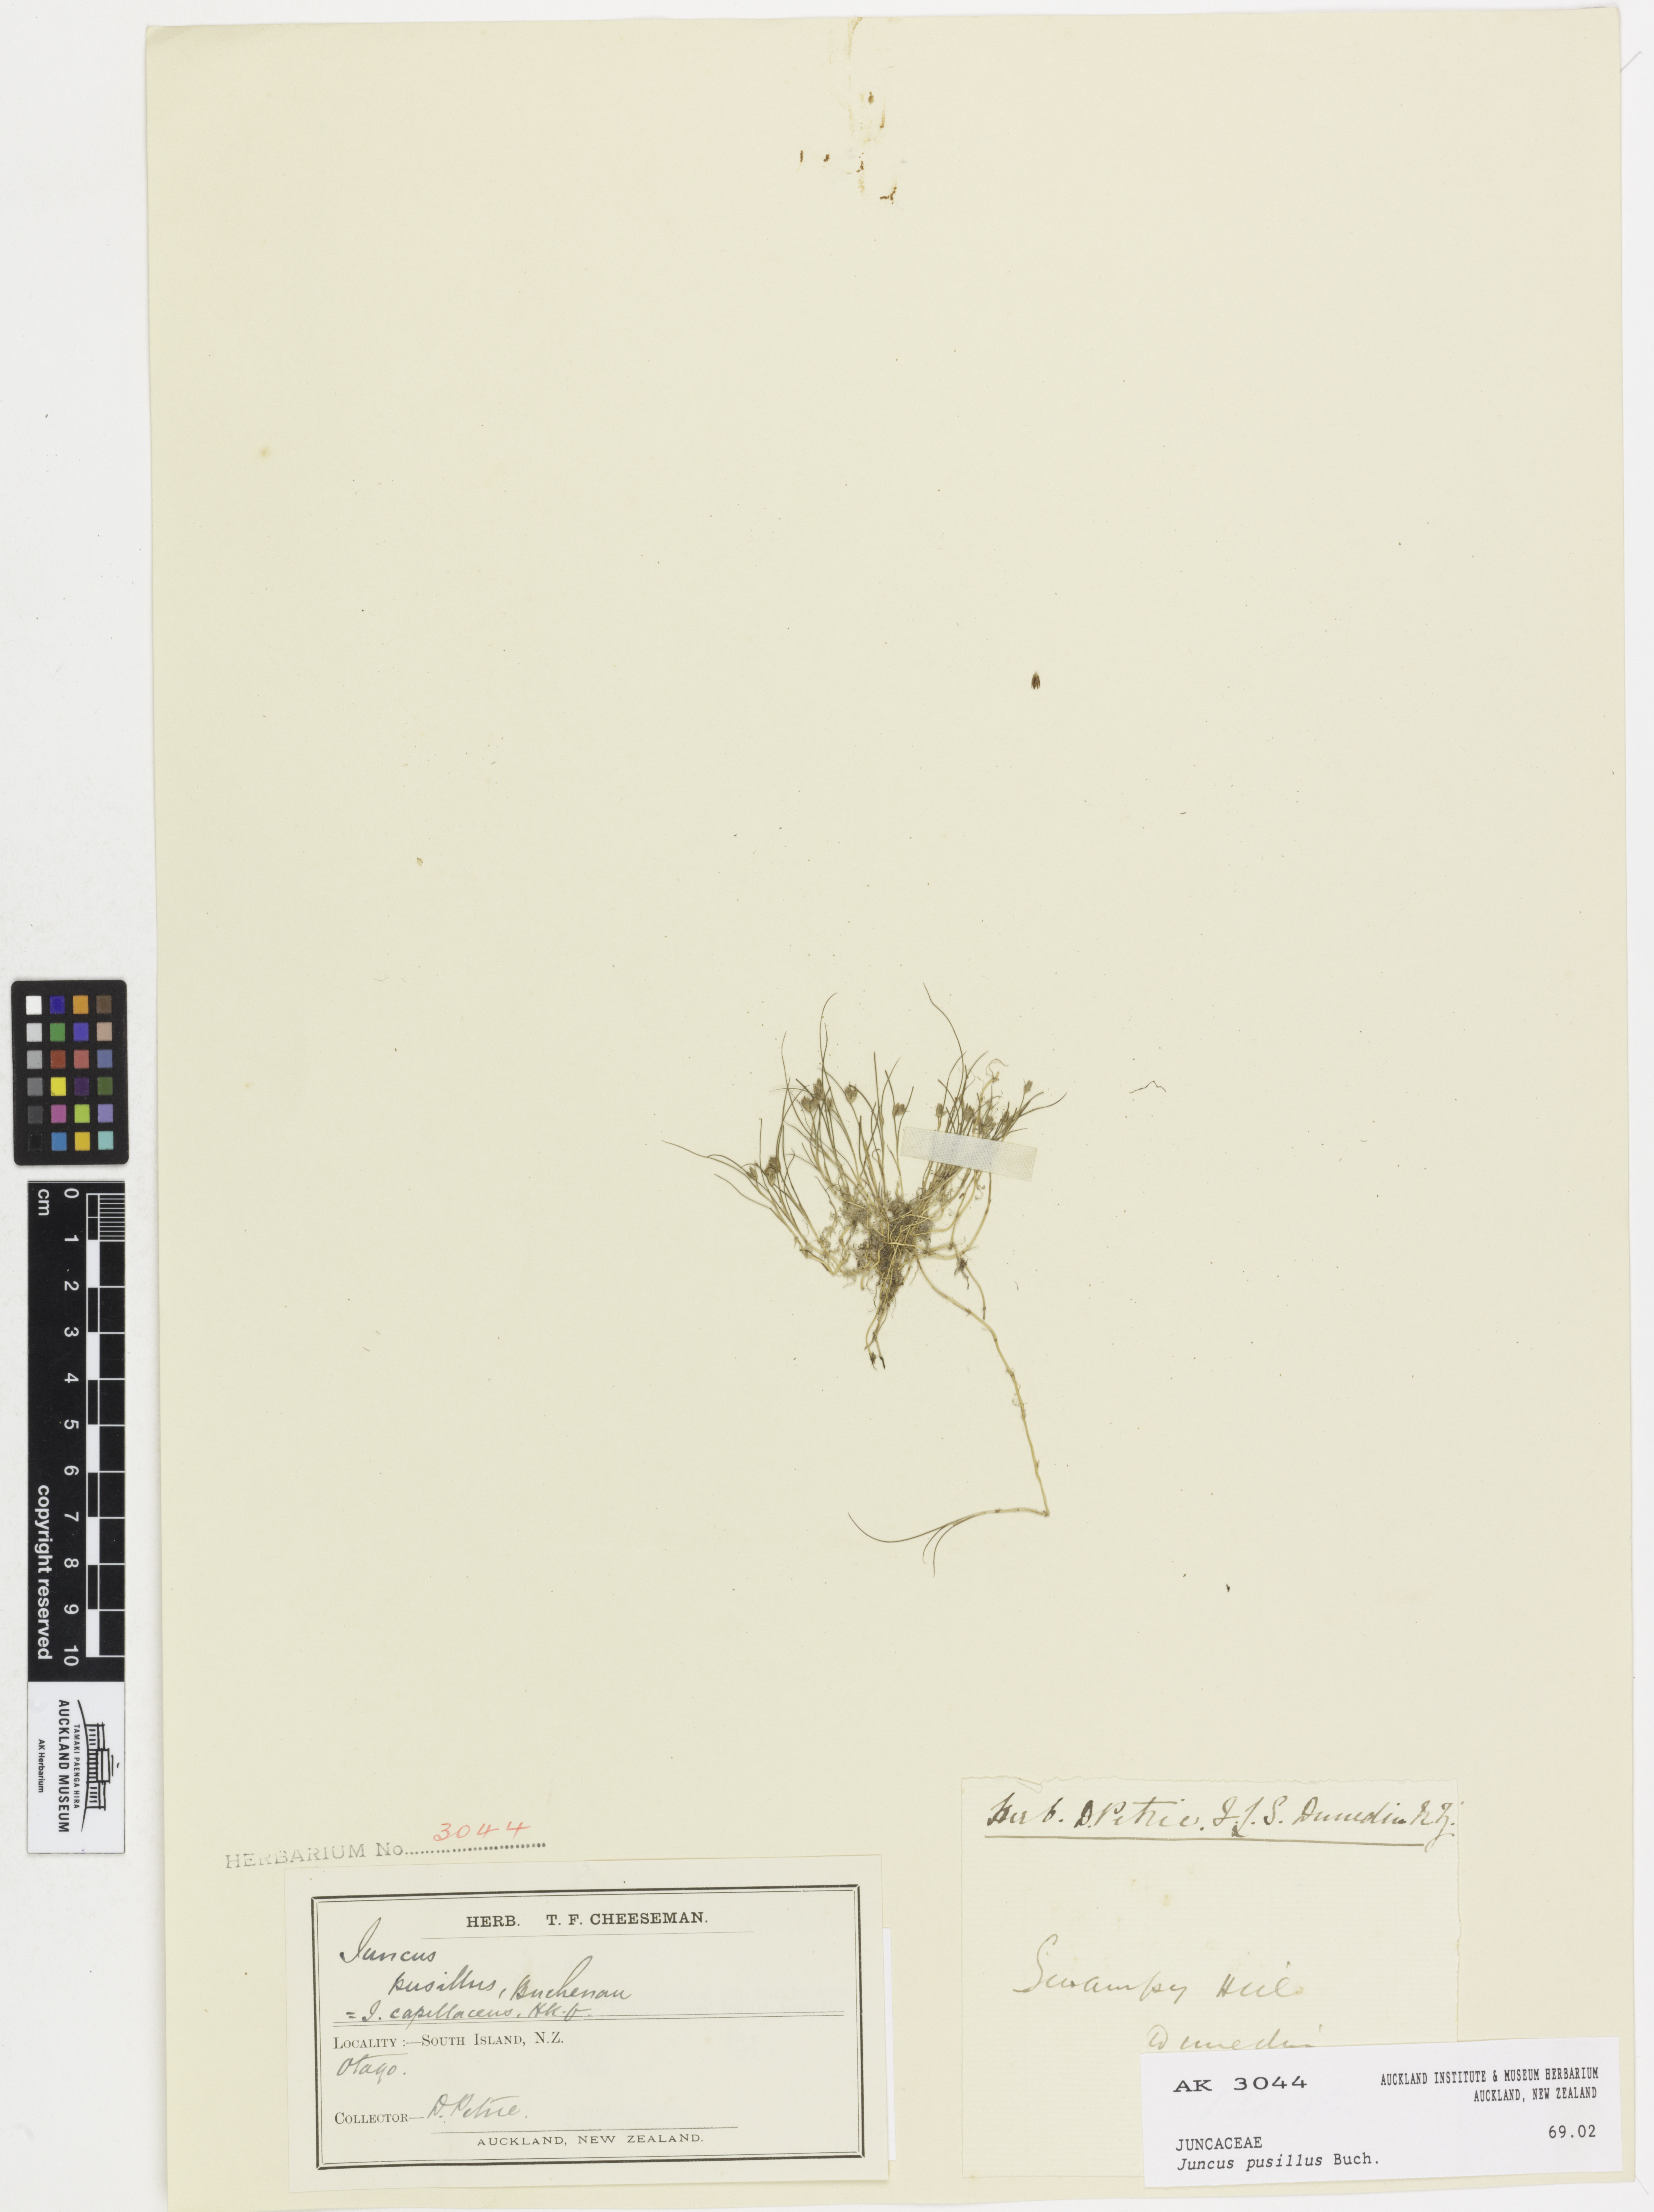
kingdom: Plantae
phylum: Tracheophyta
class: Liliopsida
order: Poales
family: Juncaceae
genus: Juncus
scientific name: Juncus pusillus
